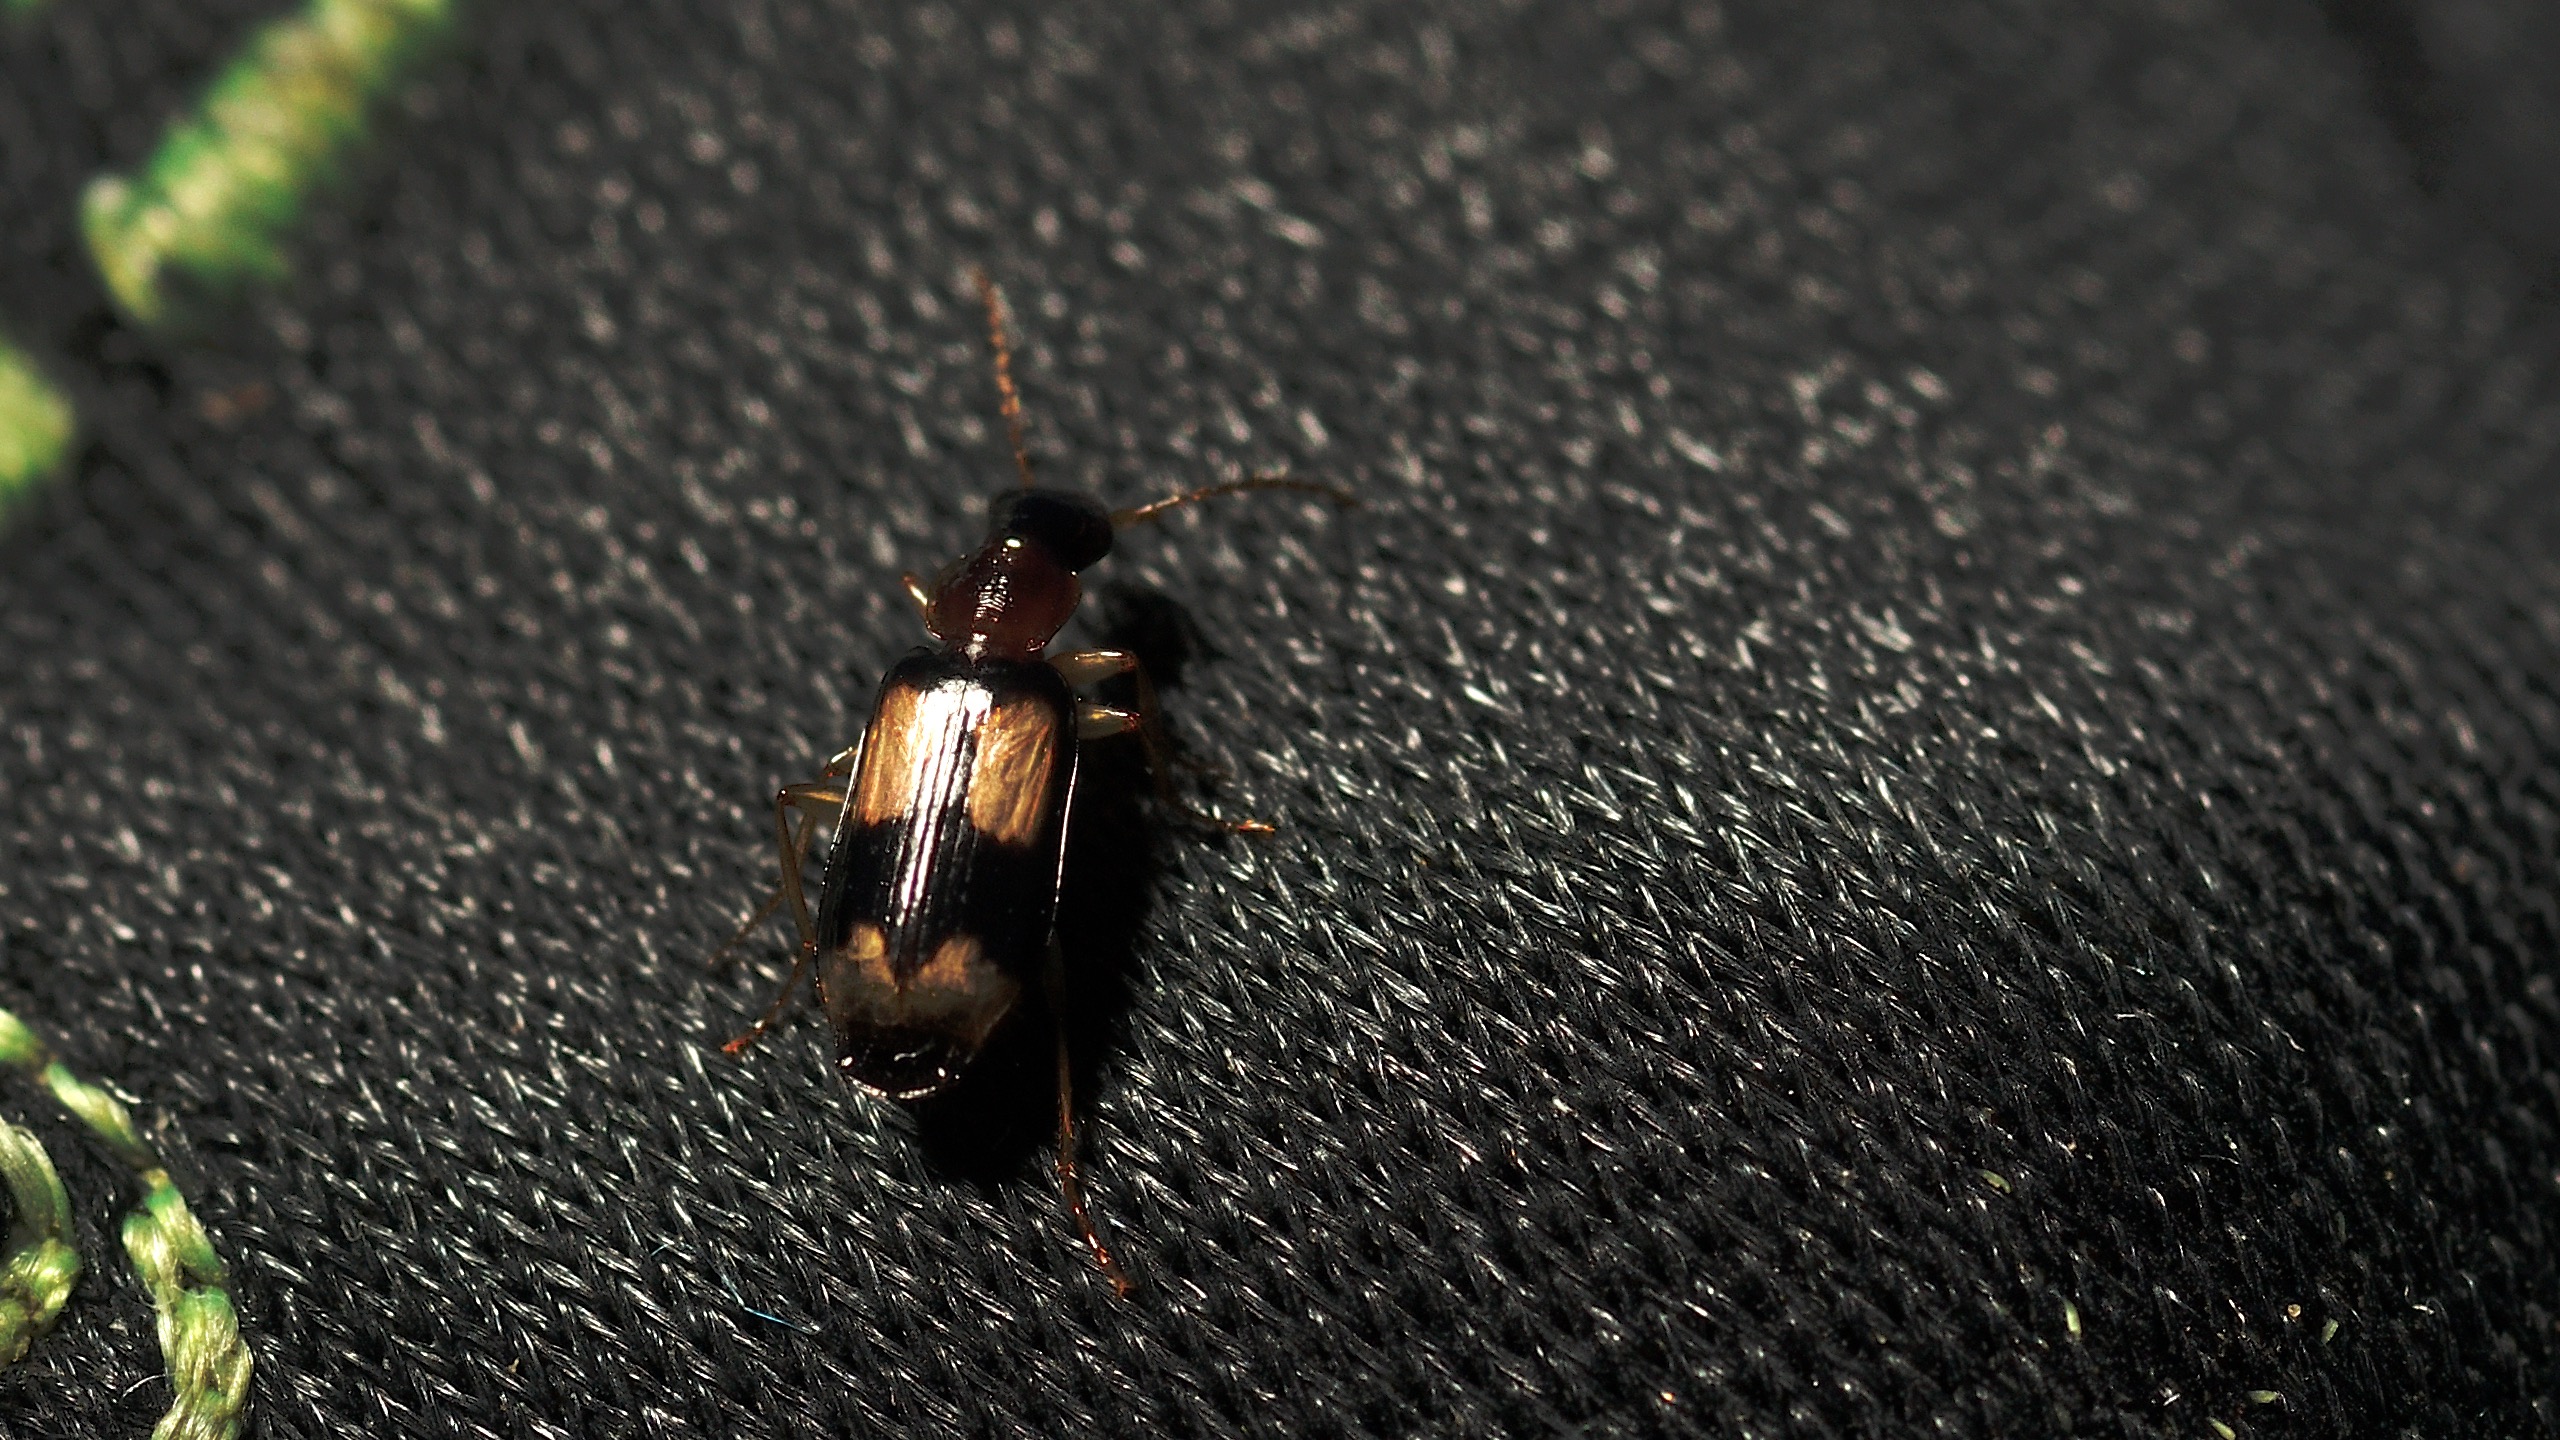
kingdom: Animalia
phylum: Arthropoda
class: Insecta
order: Coleoptera
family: Carabidae
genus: Dromius
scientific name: Dromius quadrimaculatus
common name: Fireplettet barkløber
